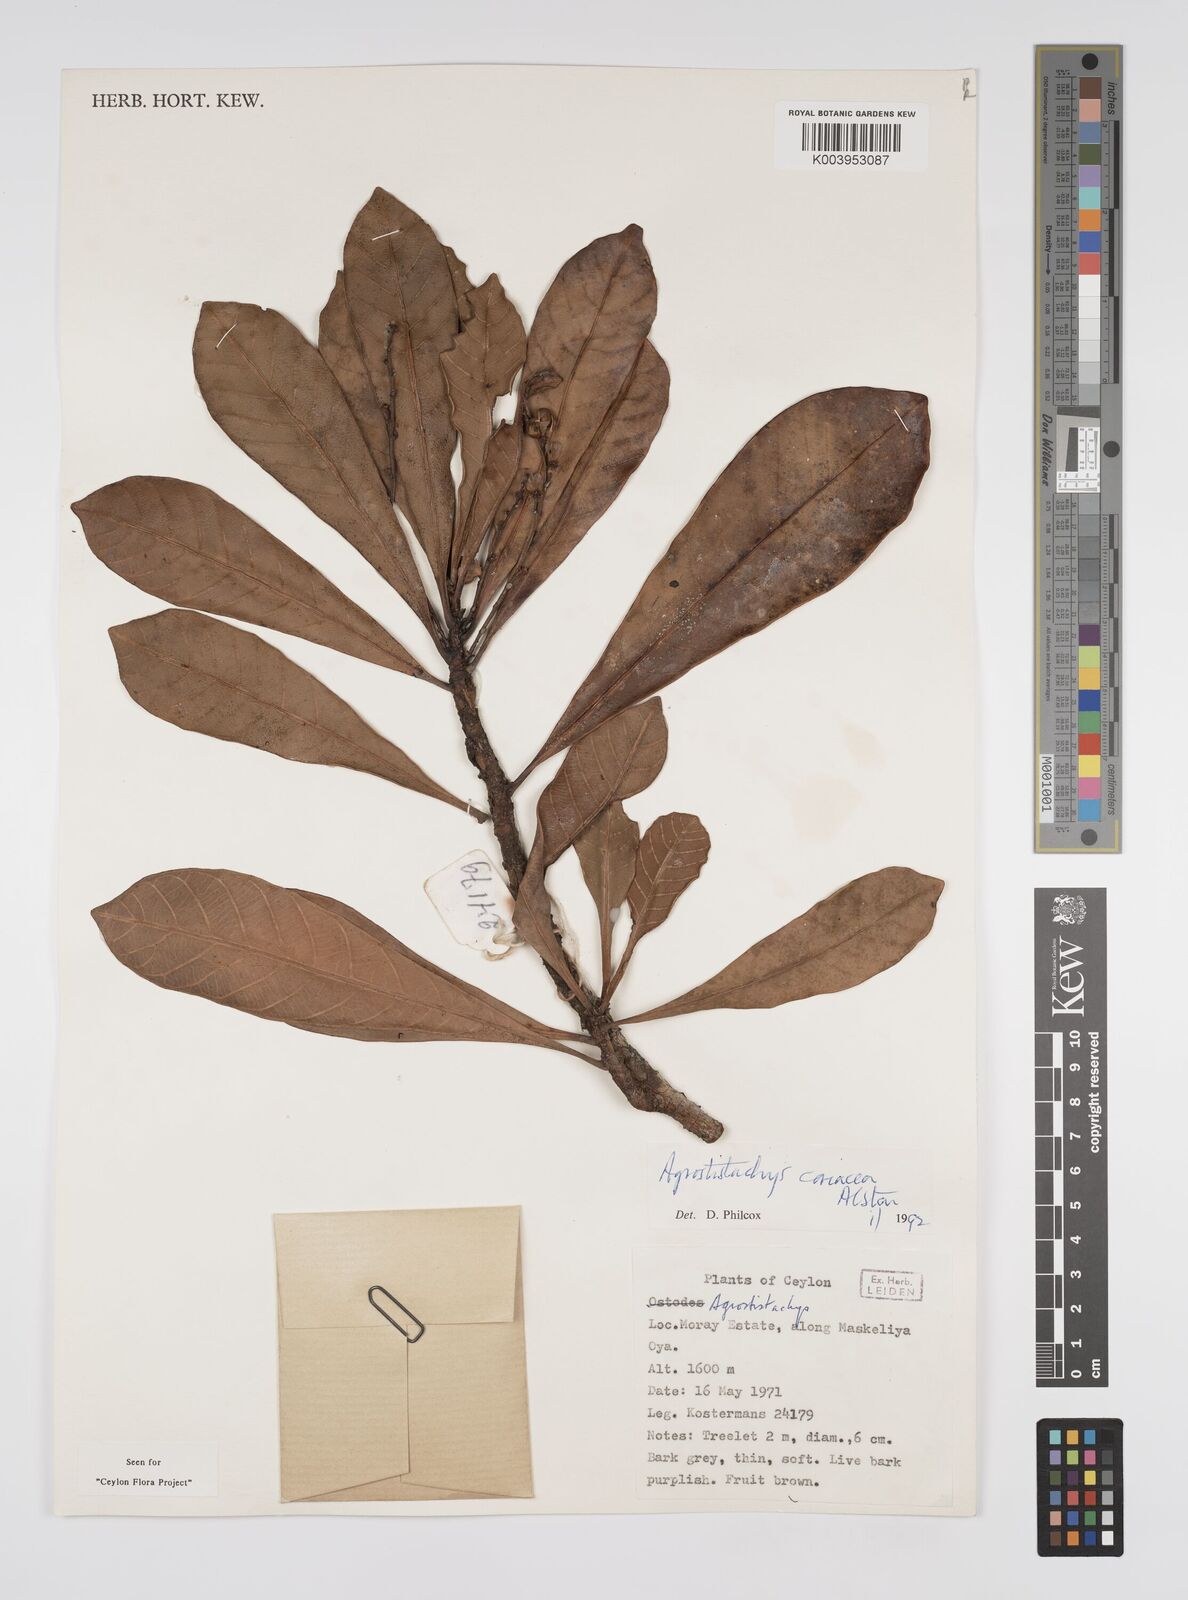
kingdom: Plantae
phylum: Tracheophyta
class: Magnoliopsida
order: Malpighiales
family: Euphorbiaceae
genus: Agrostistachys
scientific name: Agrostistachys borneensis
